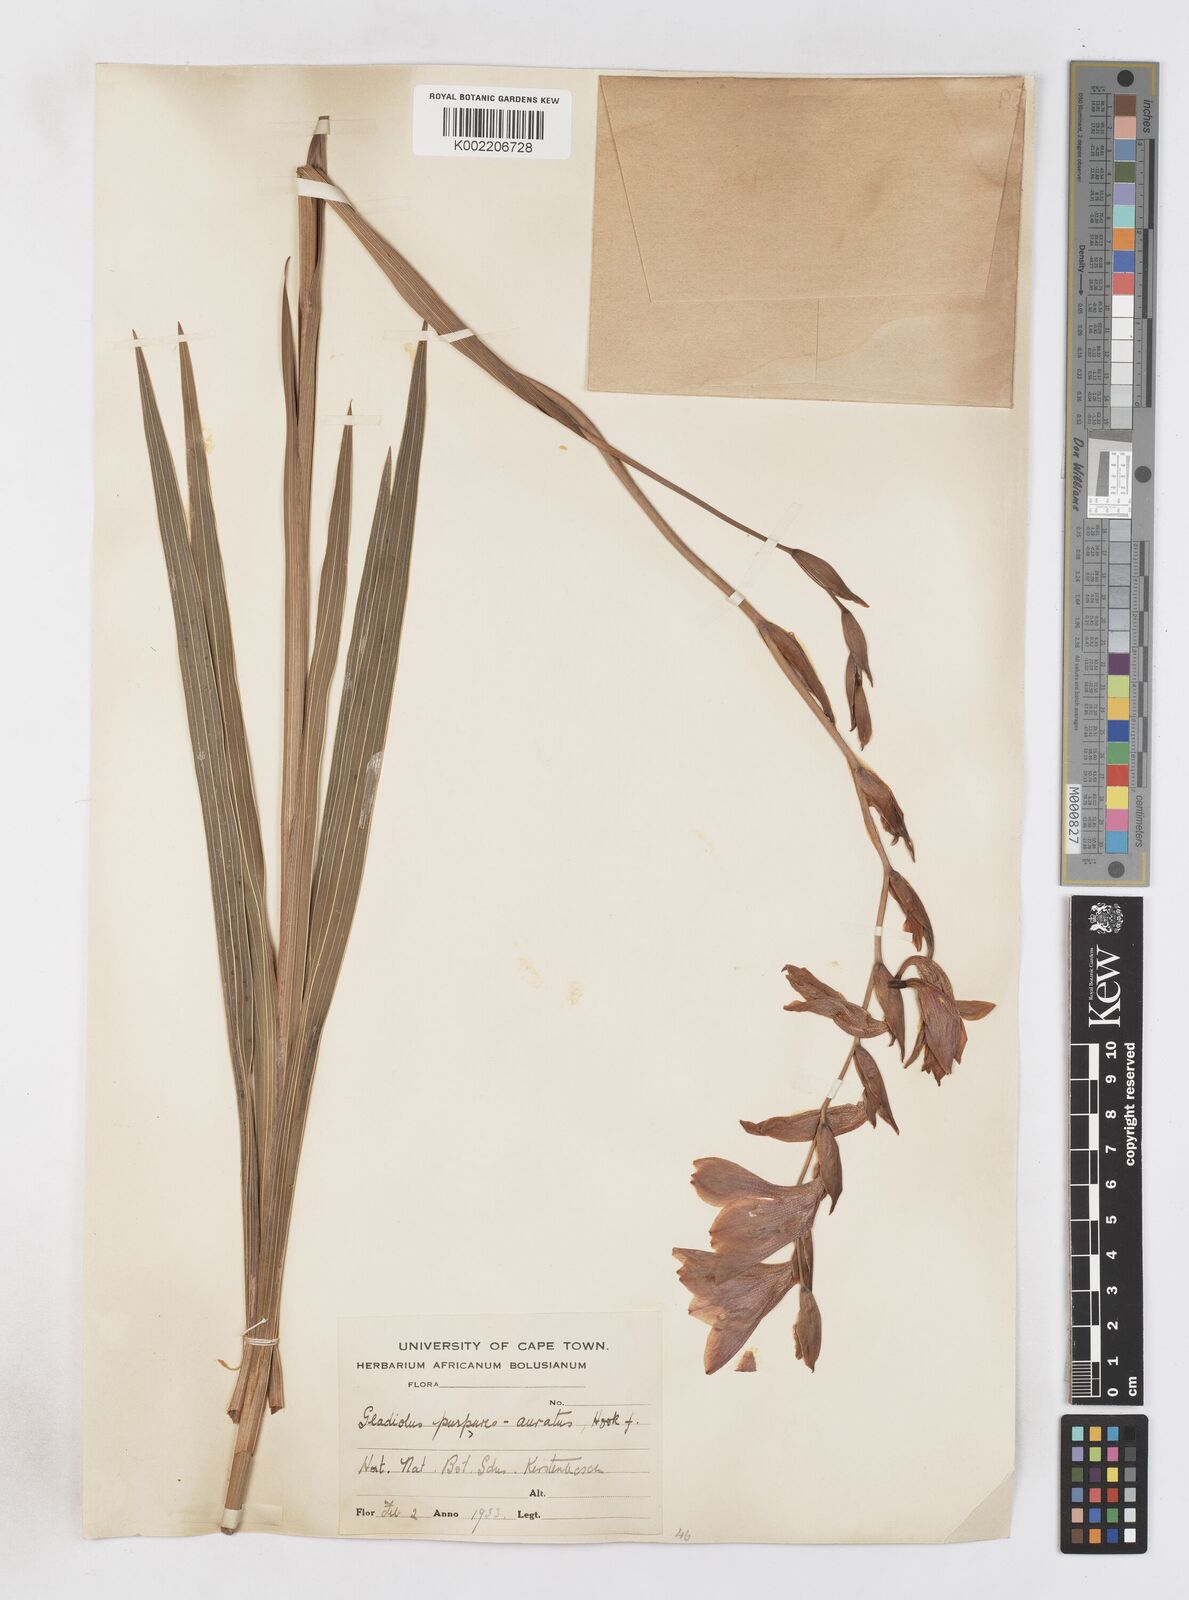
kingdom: Plantae
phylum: Tracheophyta
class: Liliopsida
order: Asparagales
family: Iridaceae
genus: Gladiolus
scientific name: Gladiolus papilio
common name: Goldblotch gladiolus
